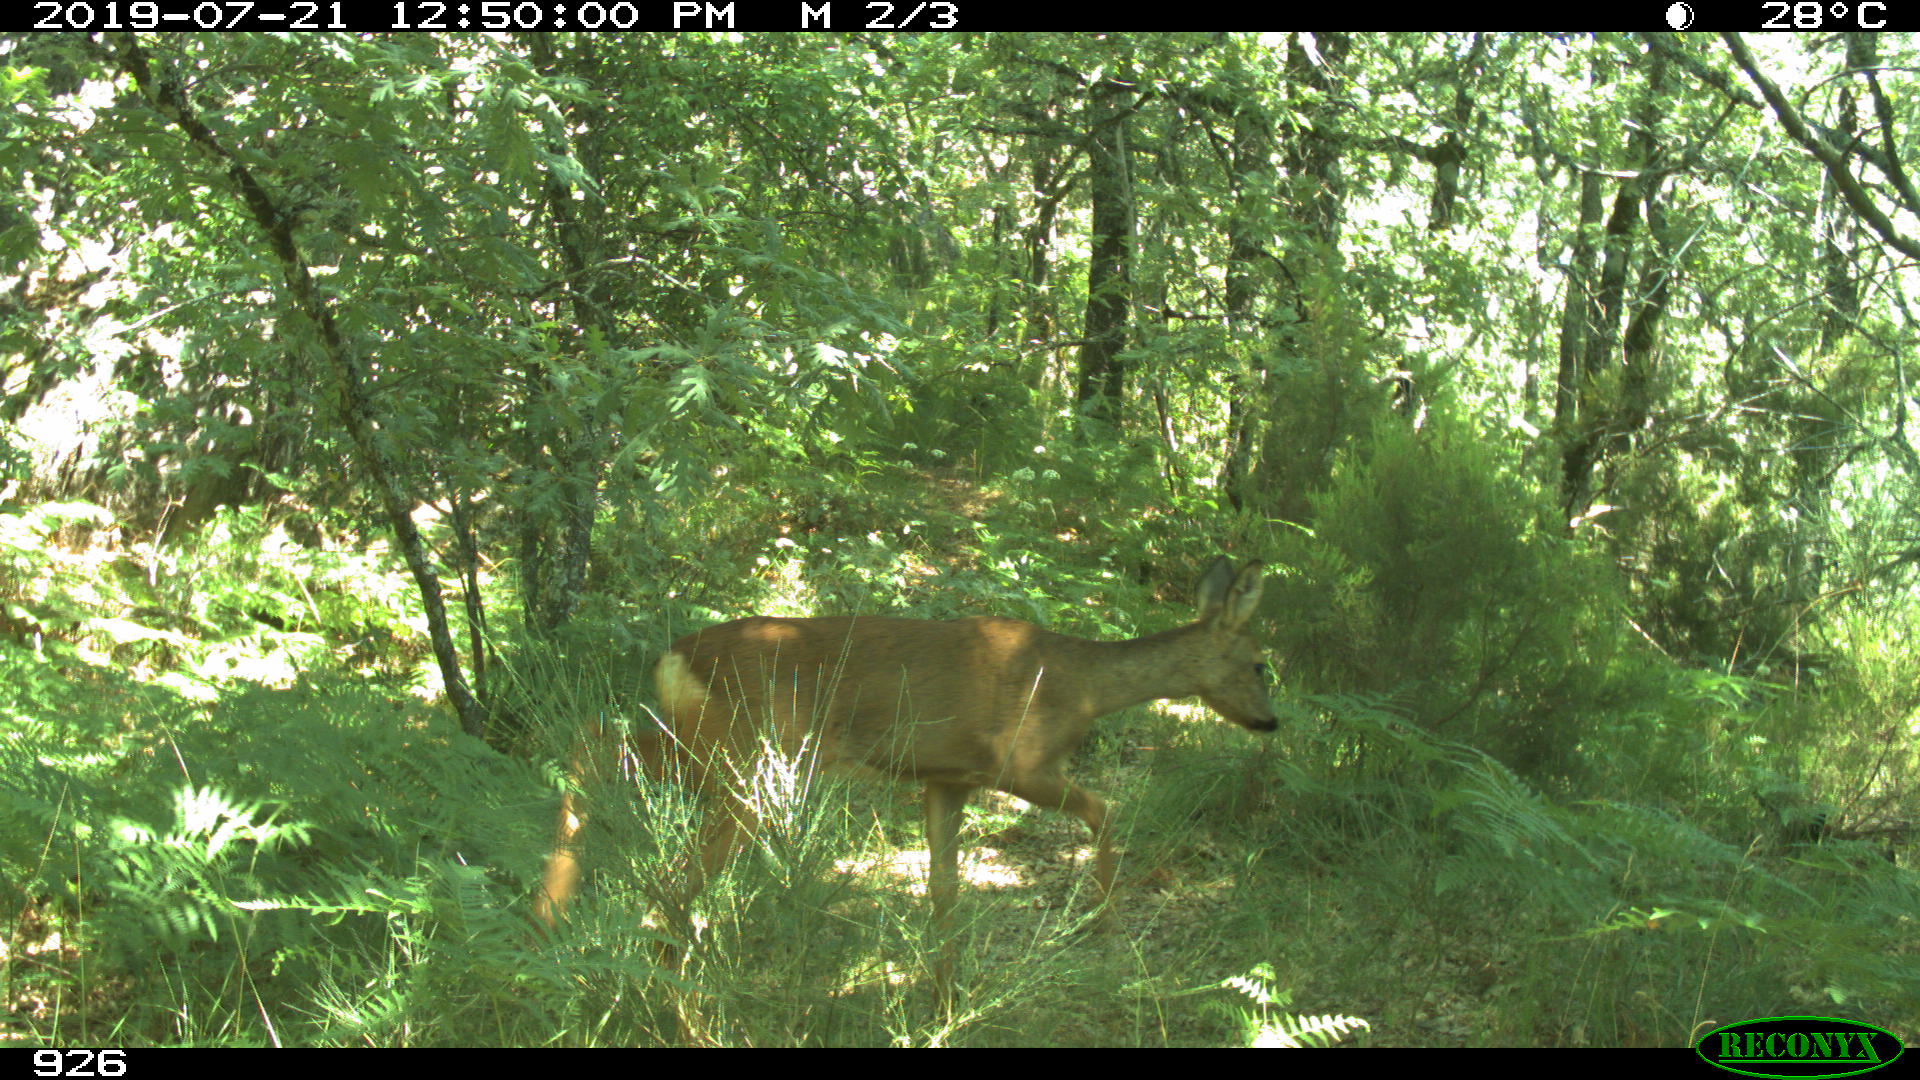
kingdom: Animalia
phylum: Chordata
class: Mammalia
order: Artiodactyla
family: Cervidae
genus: Capreolus
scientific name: Capreolus capreolus
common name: Western roe deer
